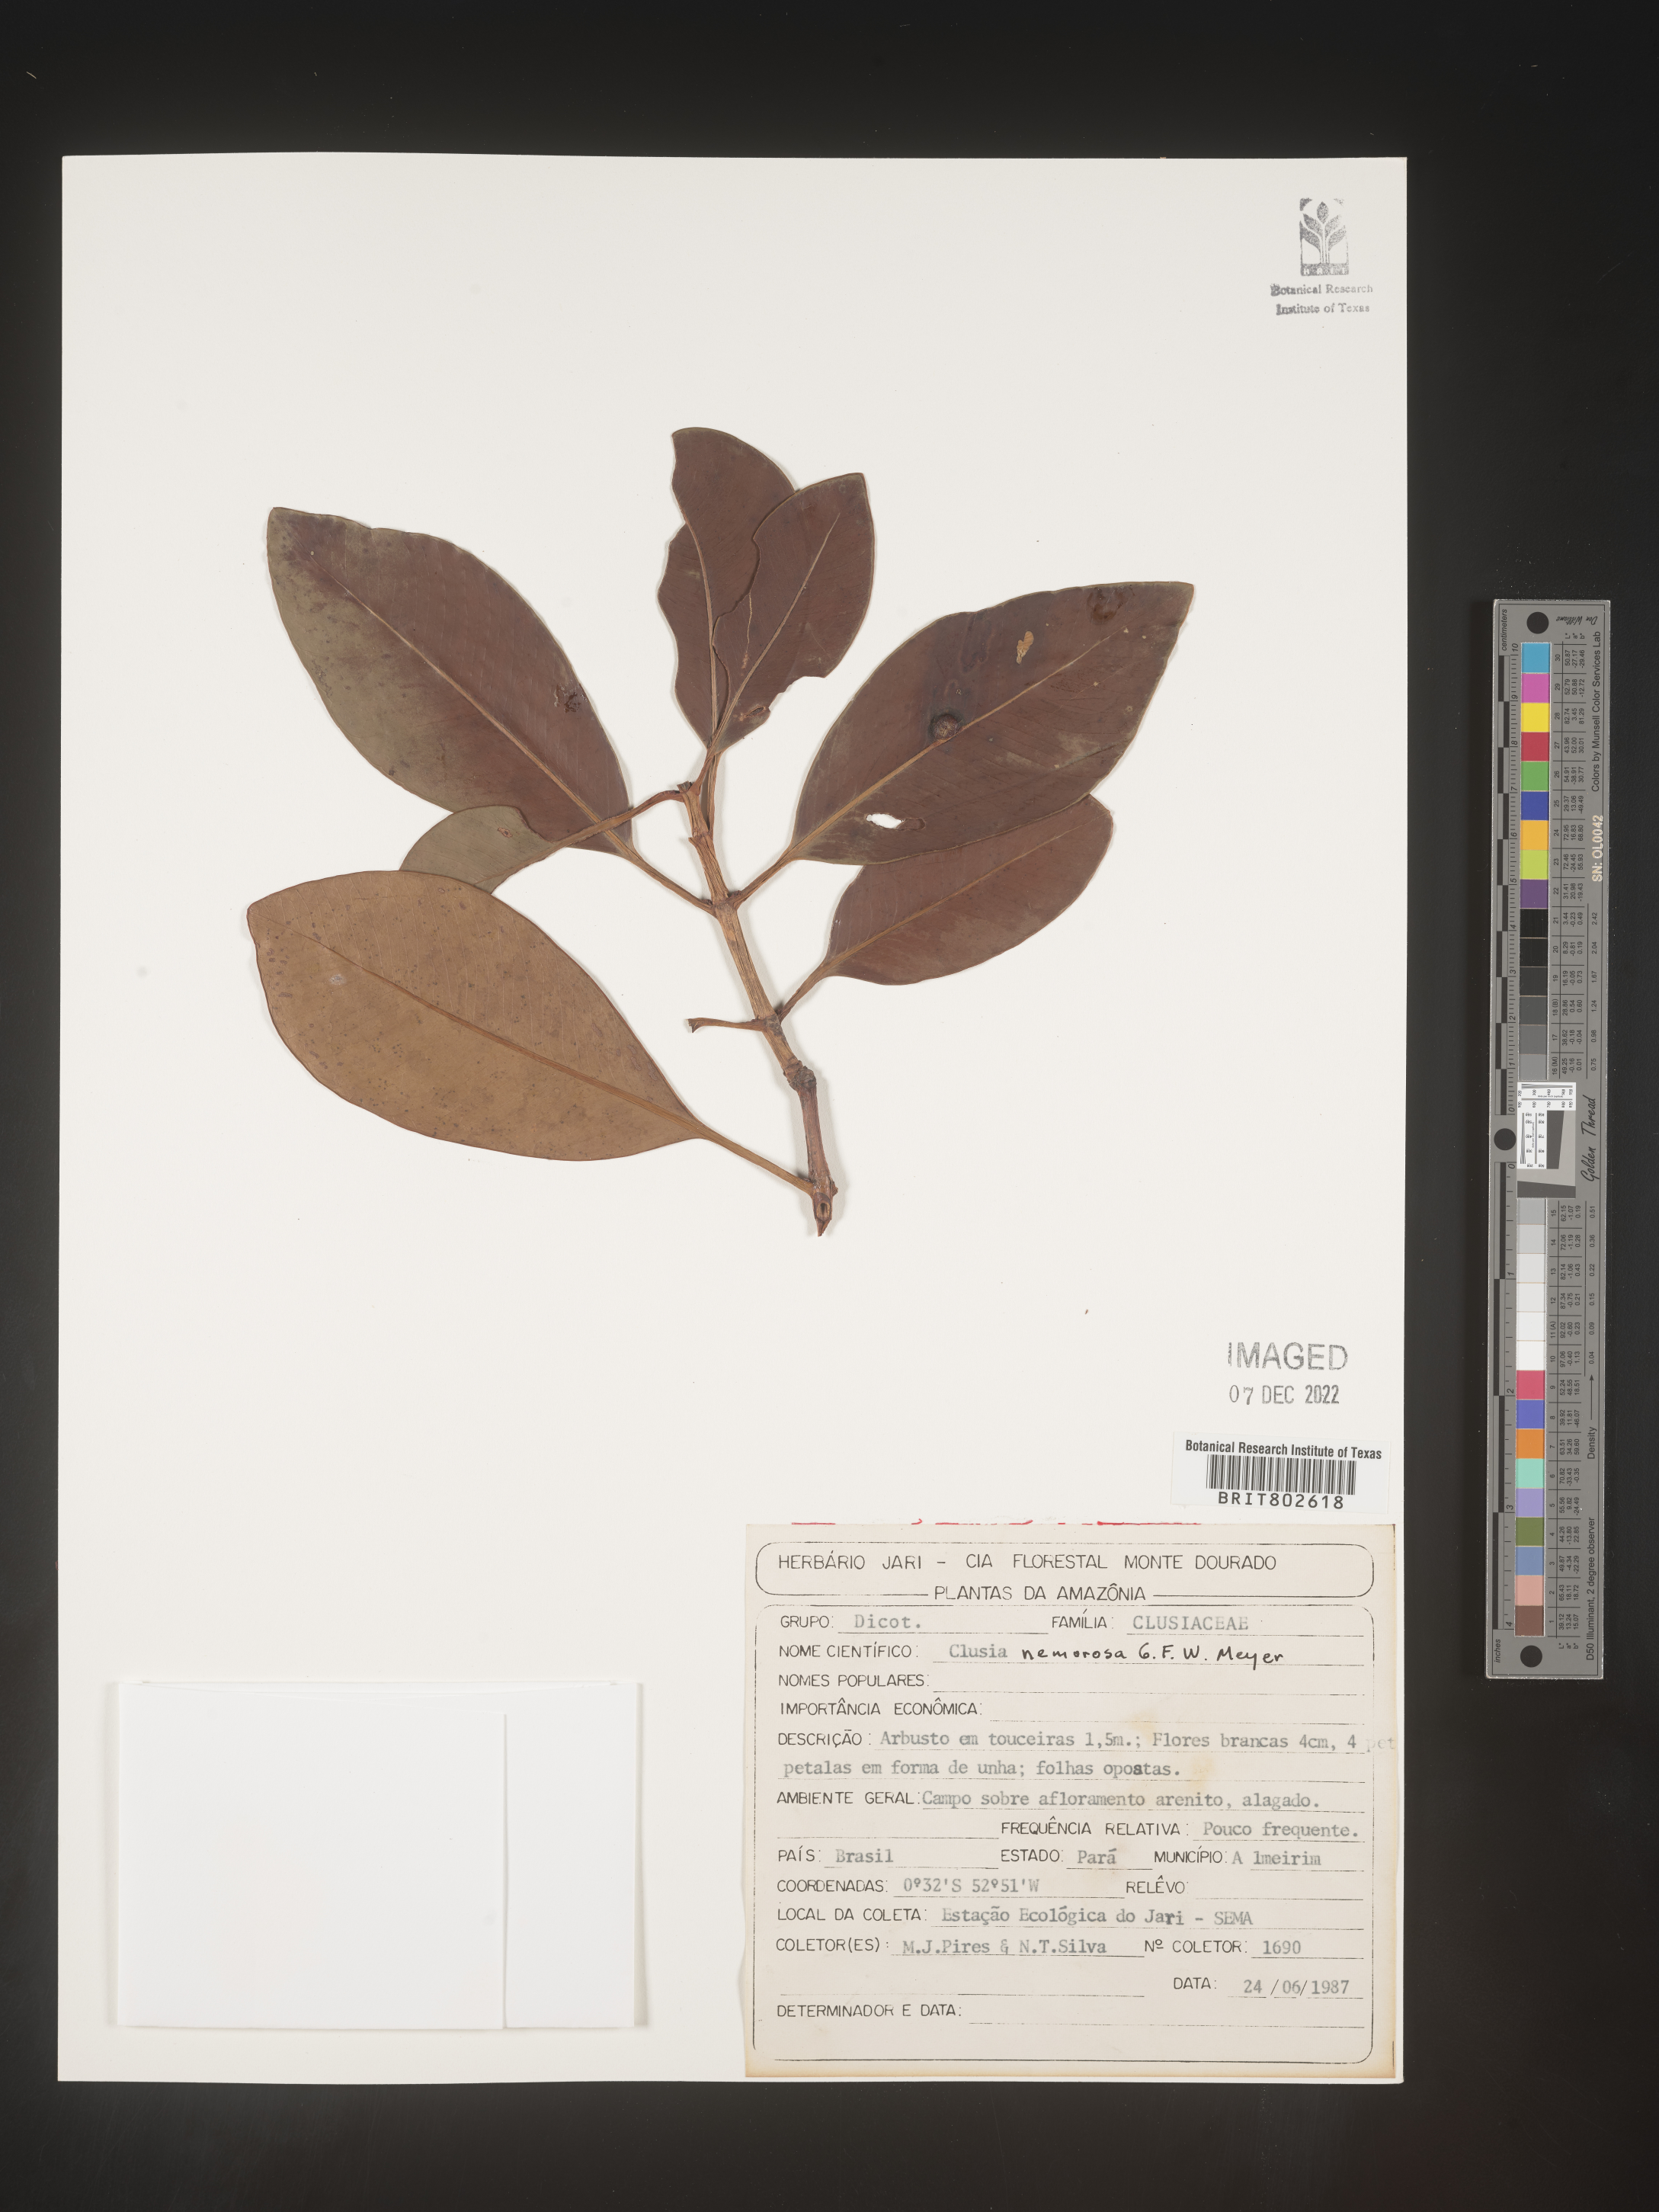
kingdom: Plantae
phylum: Tracheophyta
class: Magnoliopsida
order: Malpighiales
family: Clusiaceae
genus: Clusia
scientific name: Clusia nemorosa
